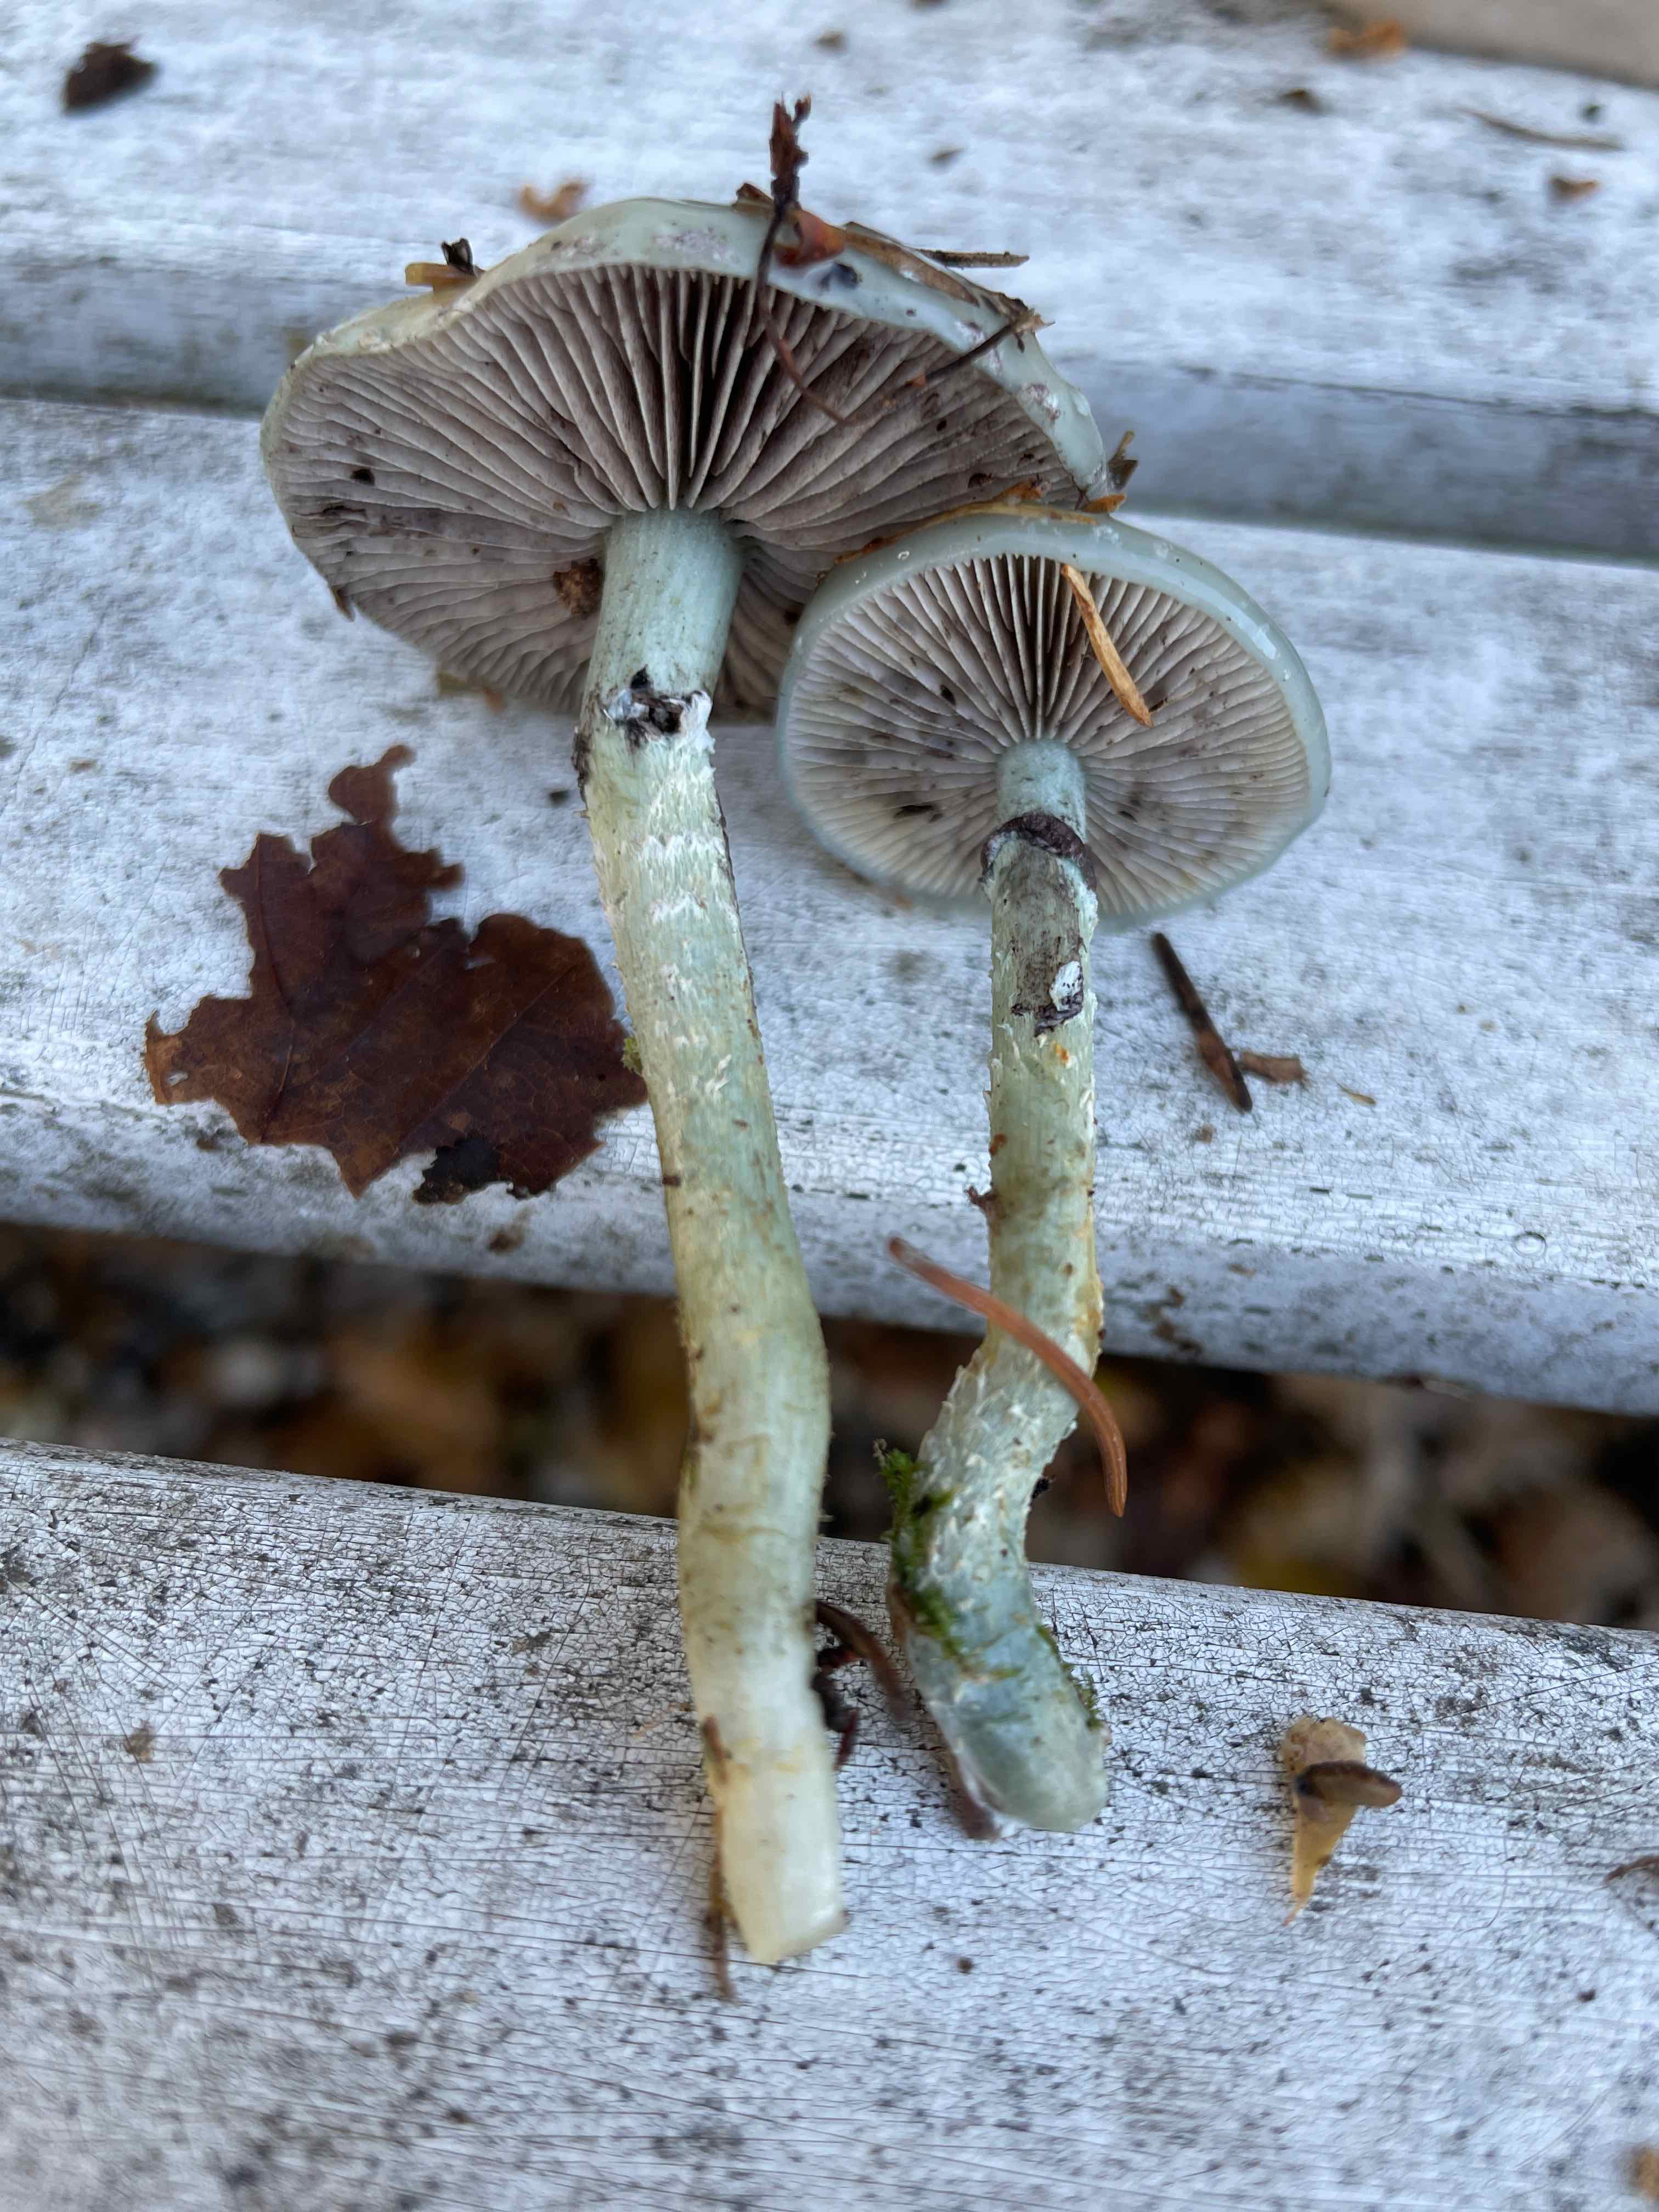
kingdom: Fungi
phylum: Basidiomycota
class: Agaricomycetes
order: Agaricales
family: Strophariaceae
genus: Stropharia
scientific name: Stropharia aeruginosa
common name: spanskgrøn bredblad
